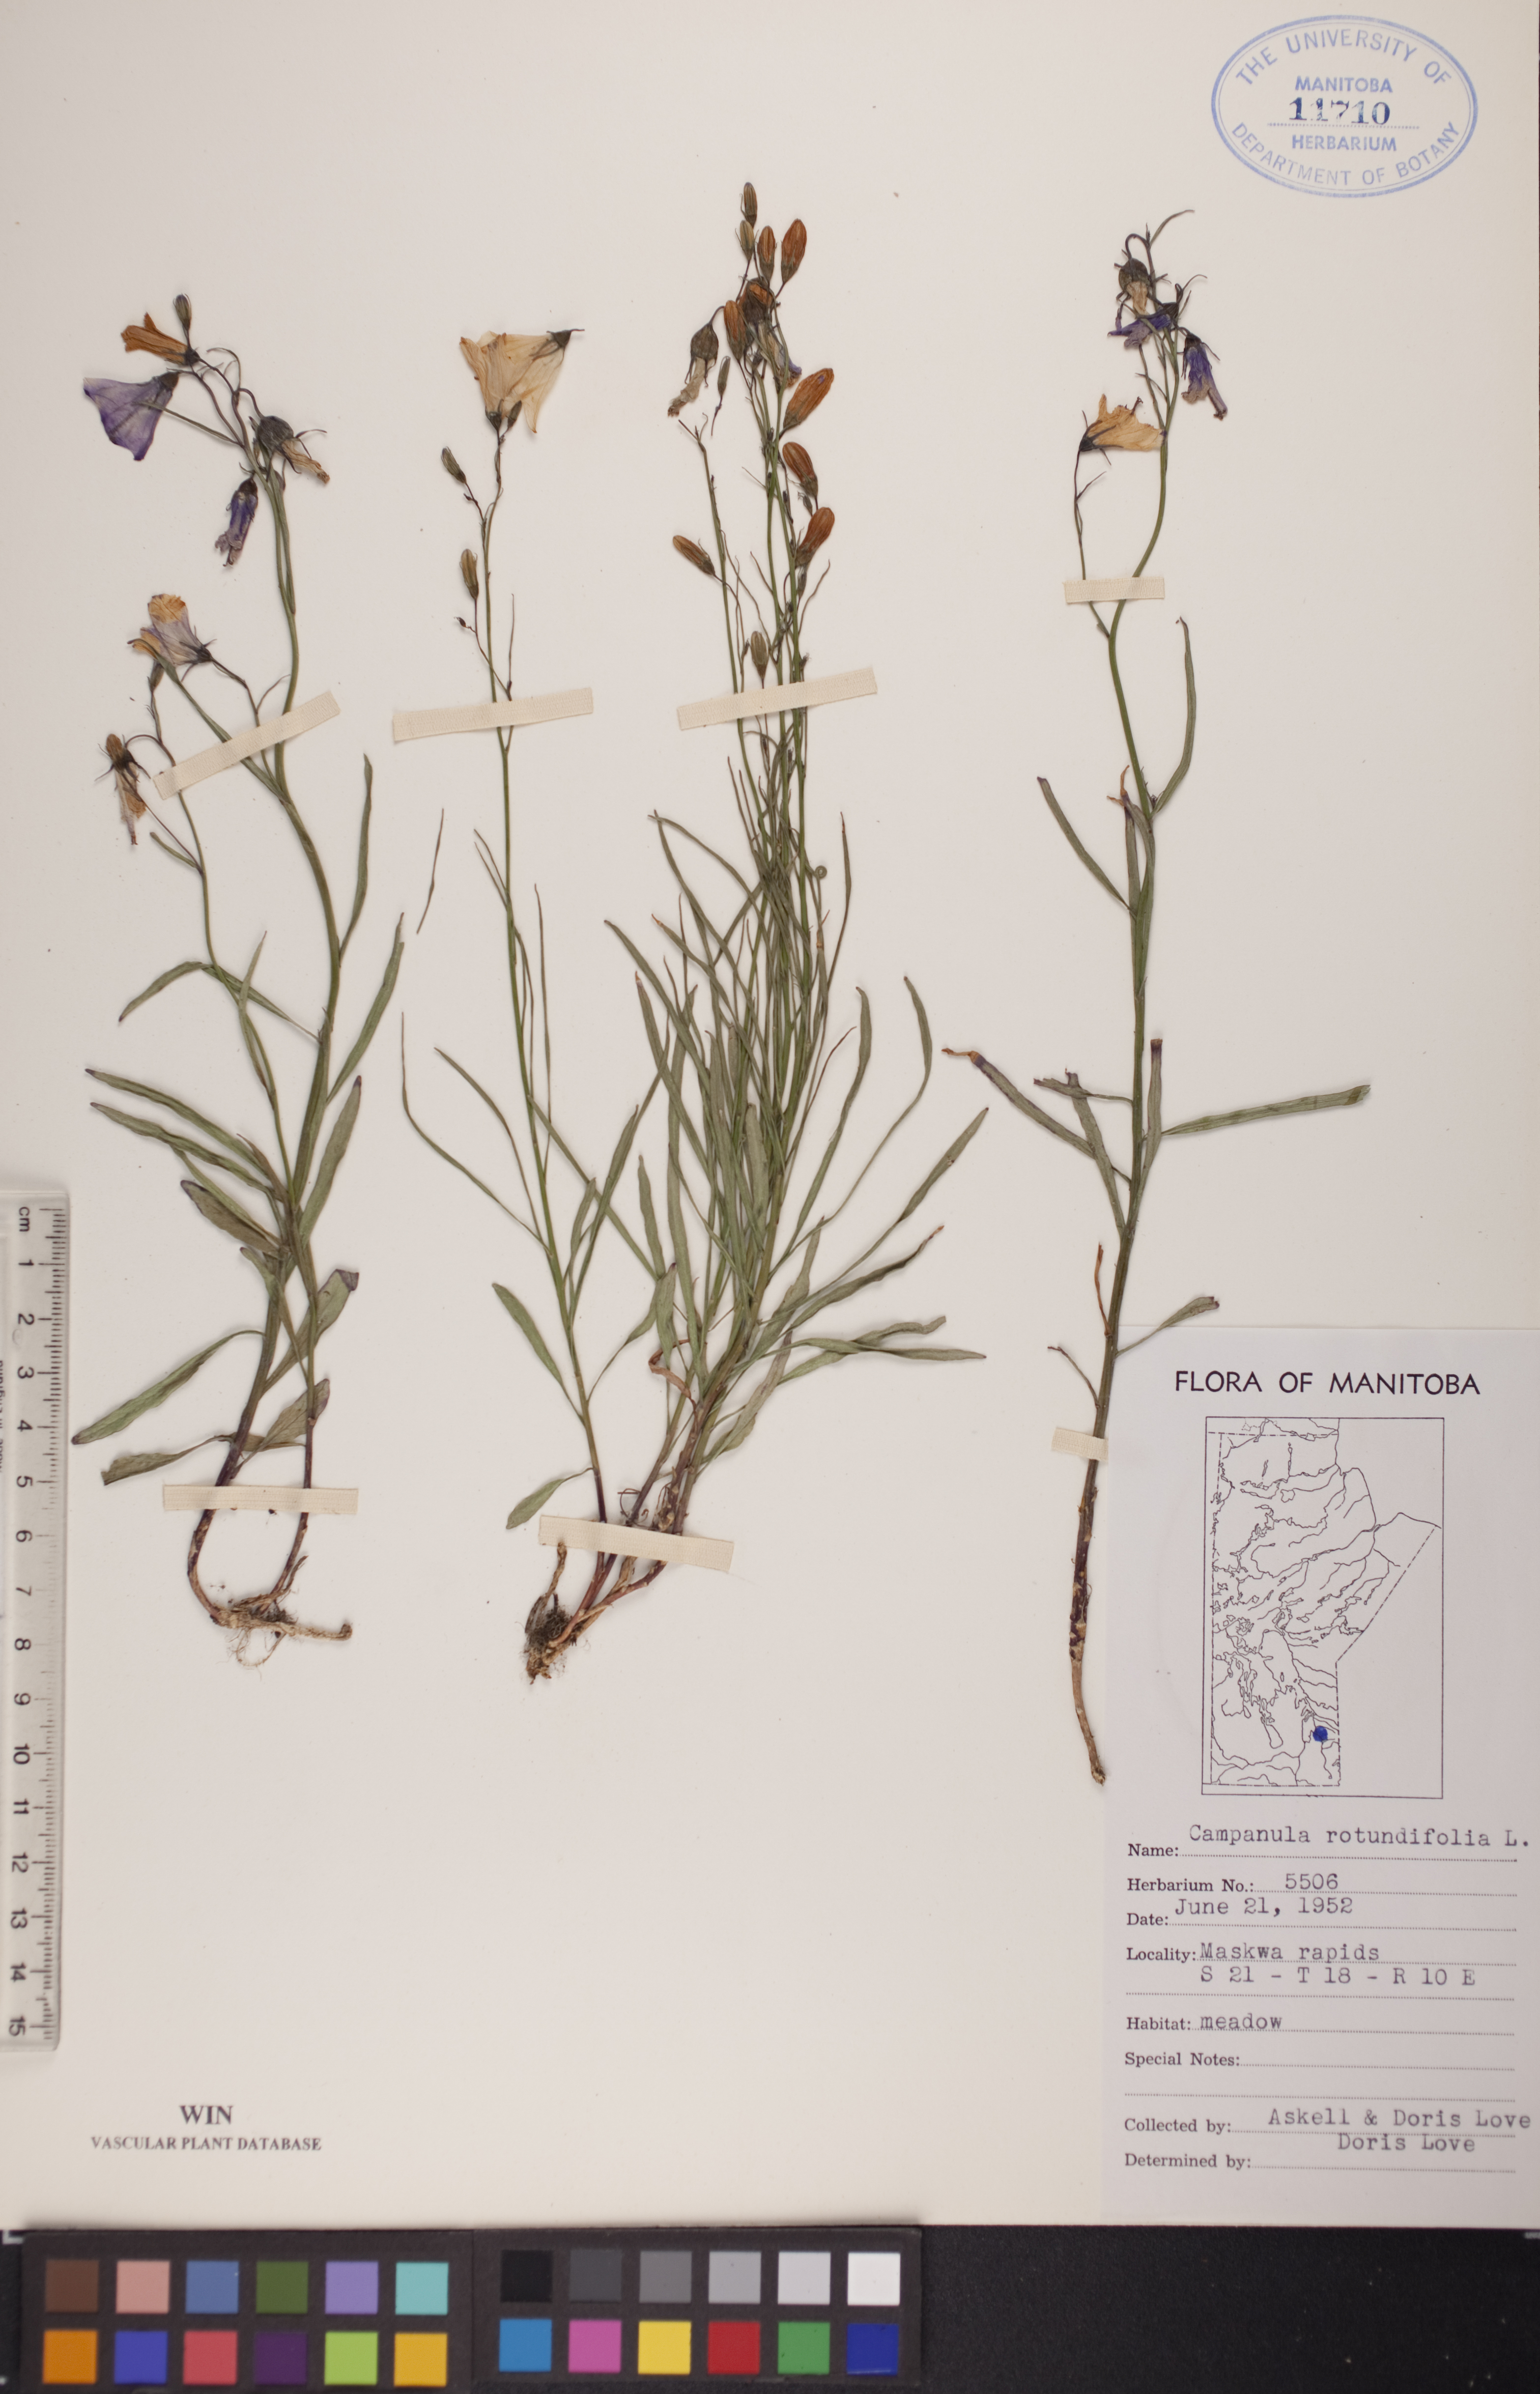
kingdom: Plantae
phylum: Tracheophyta
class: Magnoliopsida
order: Asterales
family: Campanulaceae
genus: Campanula
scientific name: Campanula rotundifolia
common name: Harebell
